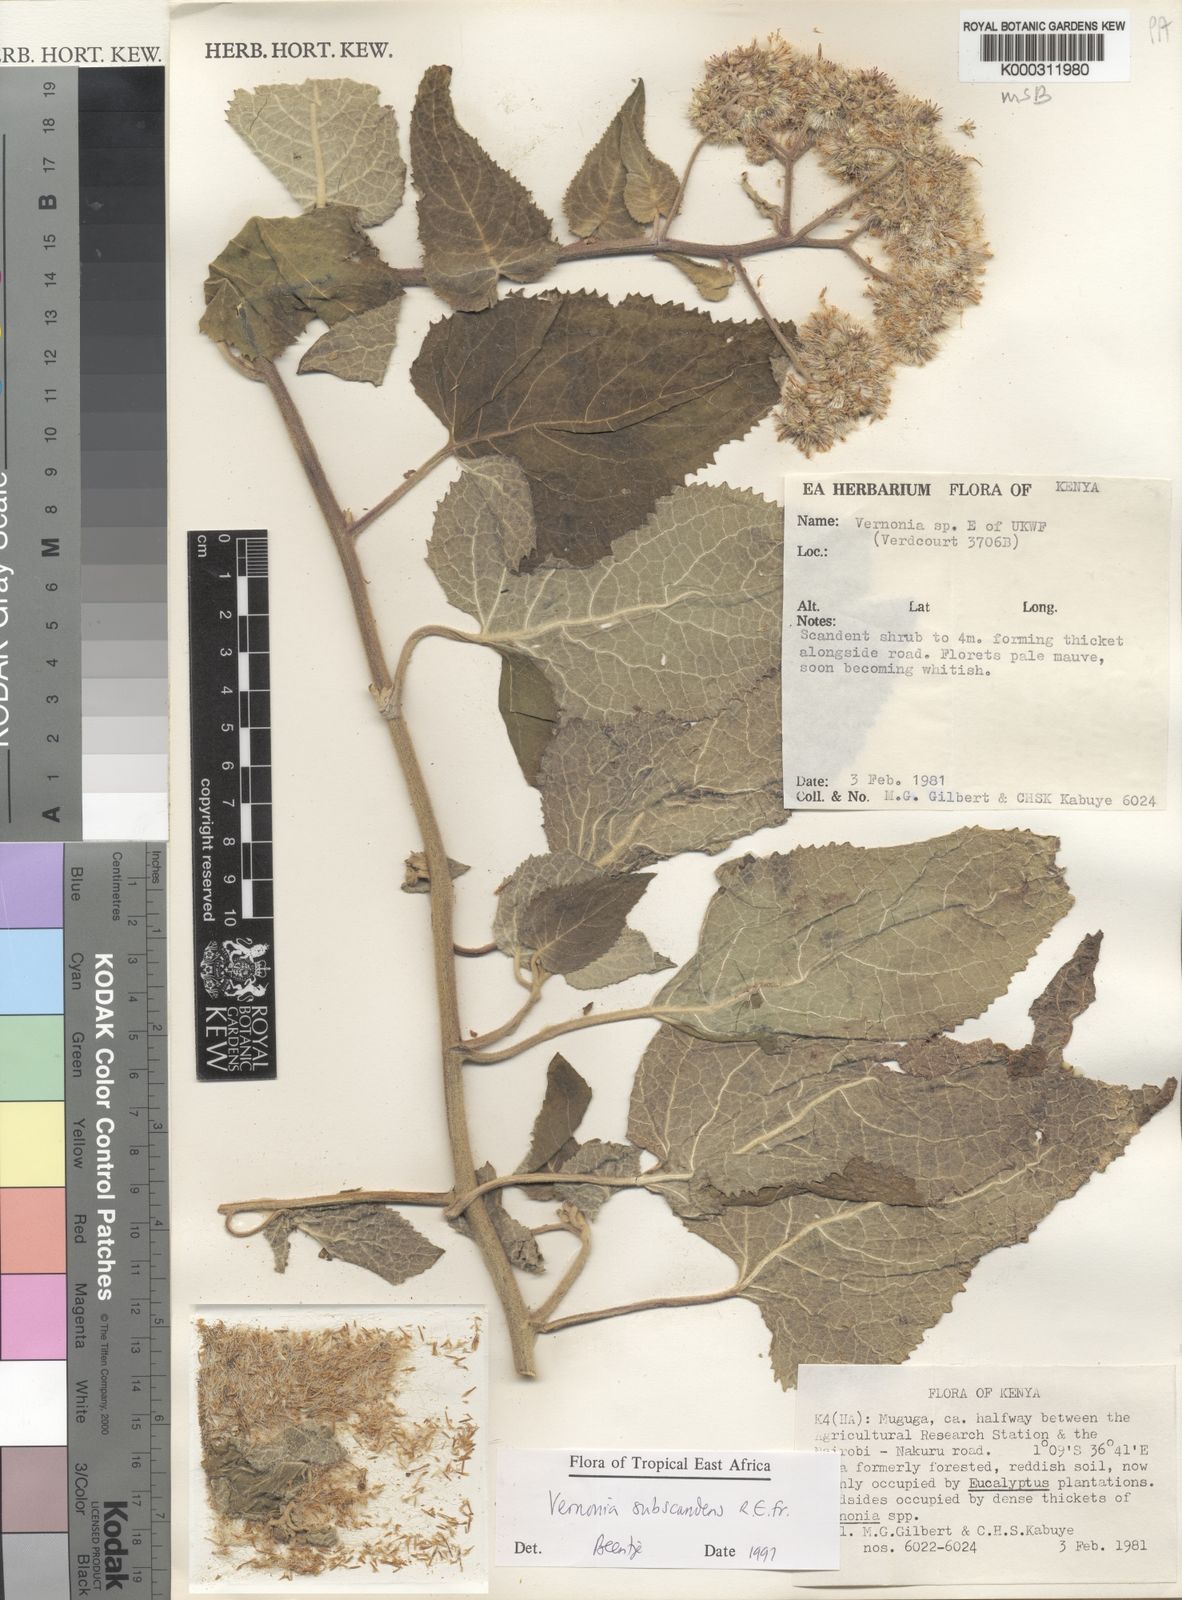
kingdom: Plantae
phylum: Tracheophyta
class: Magnoliopsida
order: Asterales
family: Asteraceae
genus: Vernonia
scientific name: Vernonia subscandens
